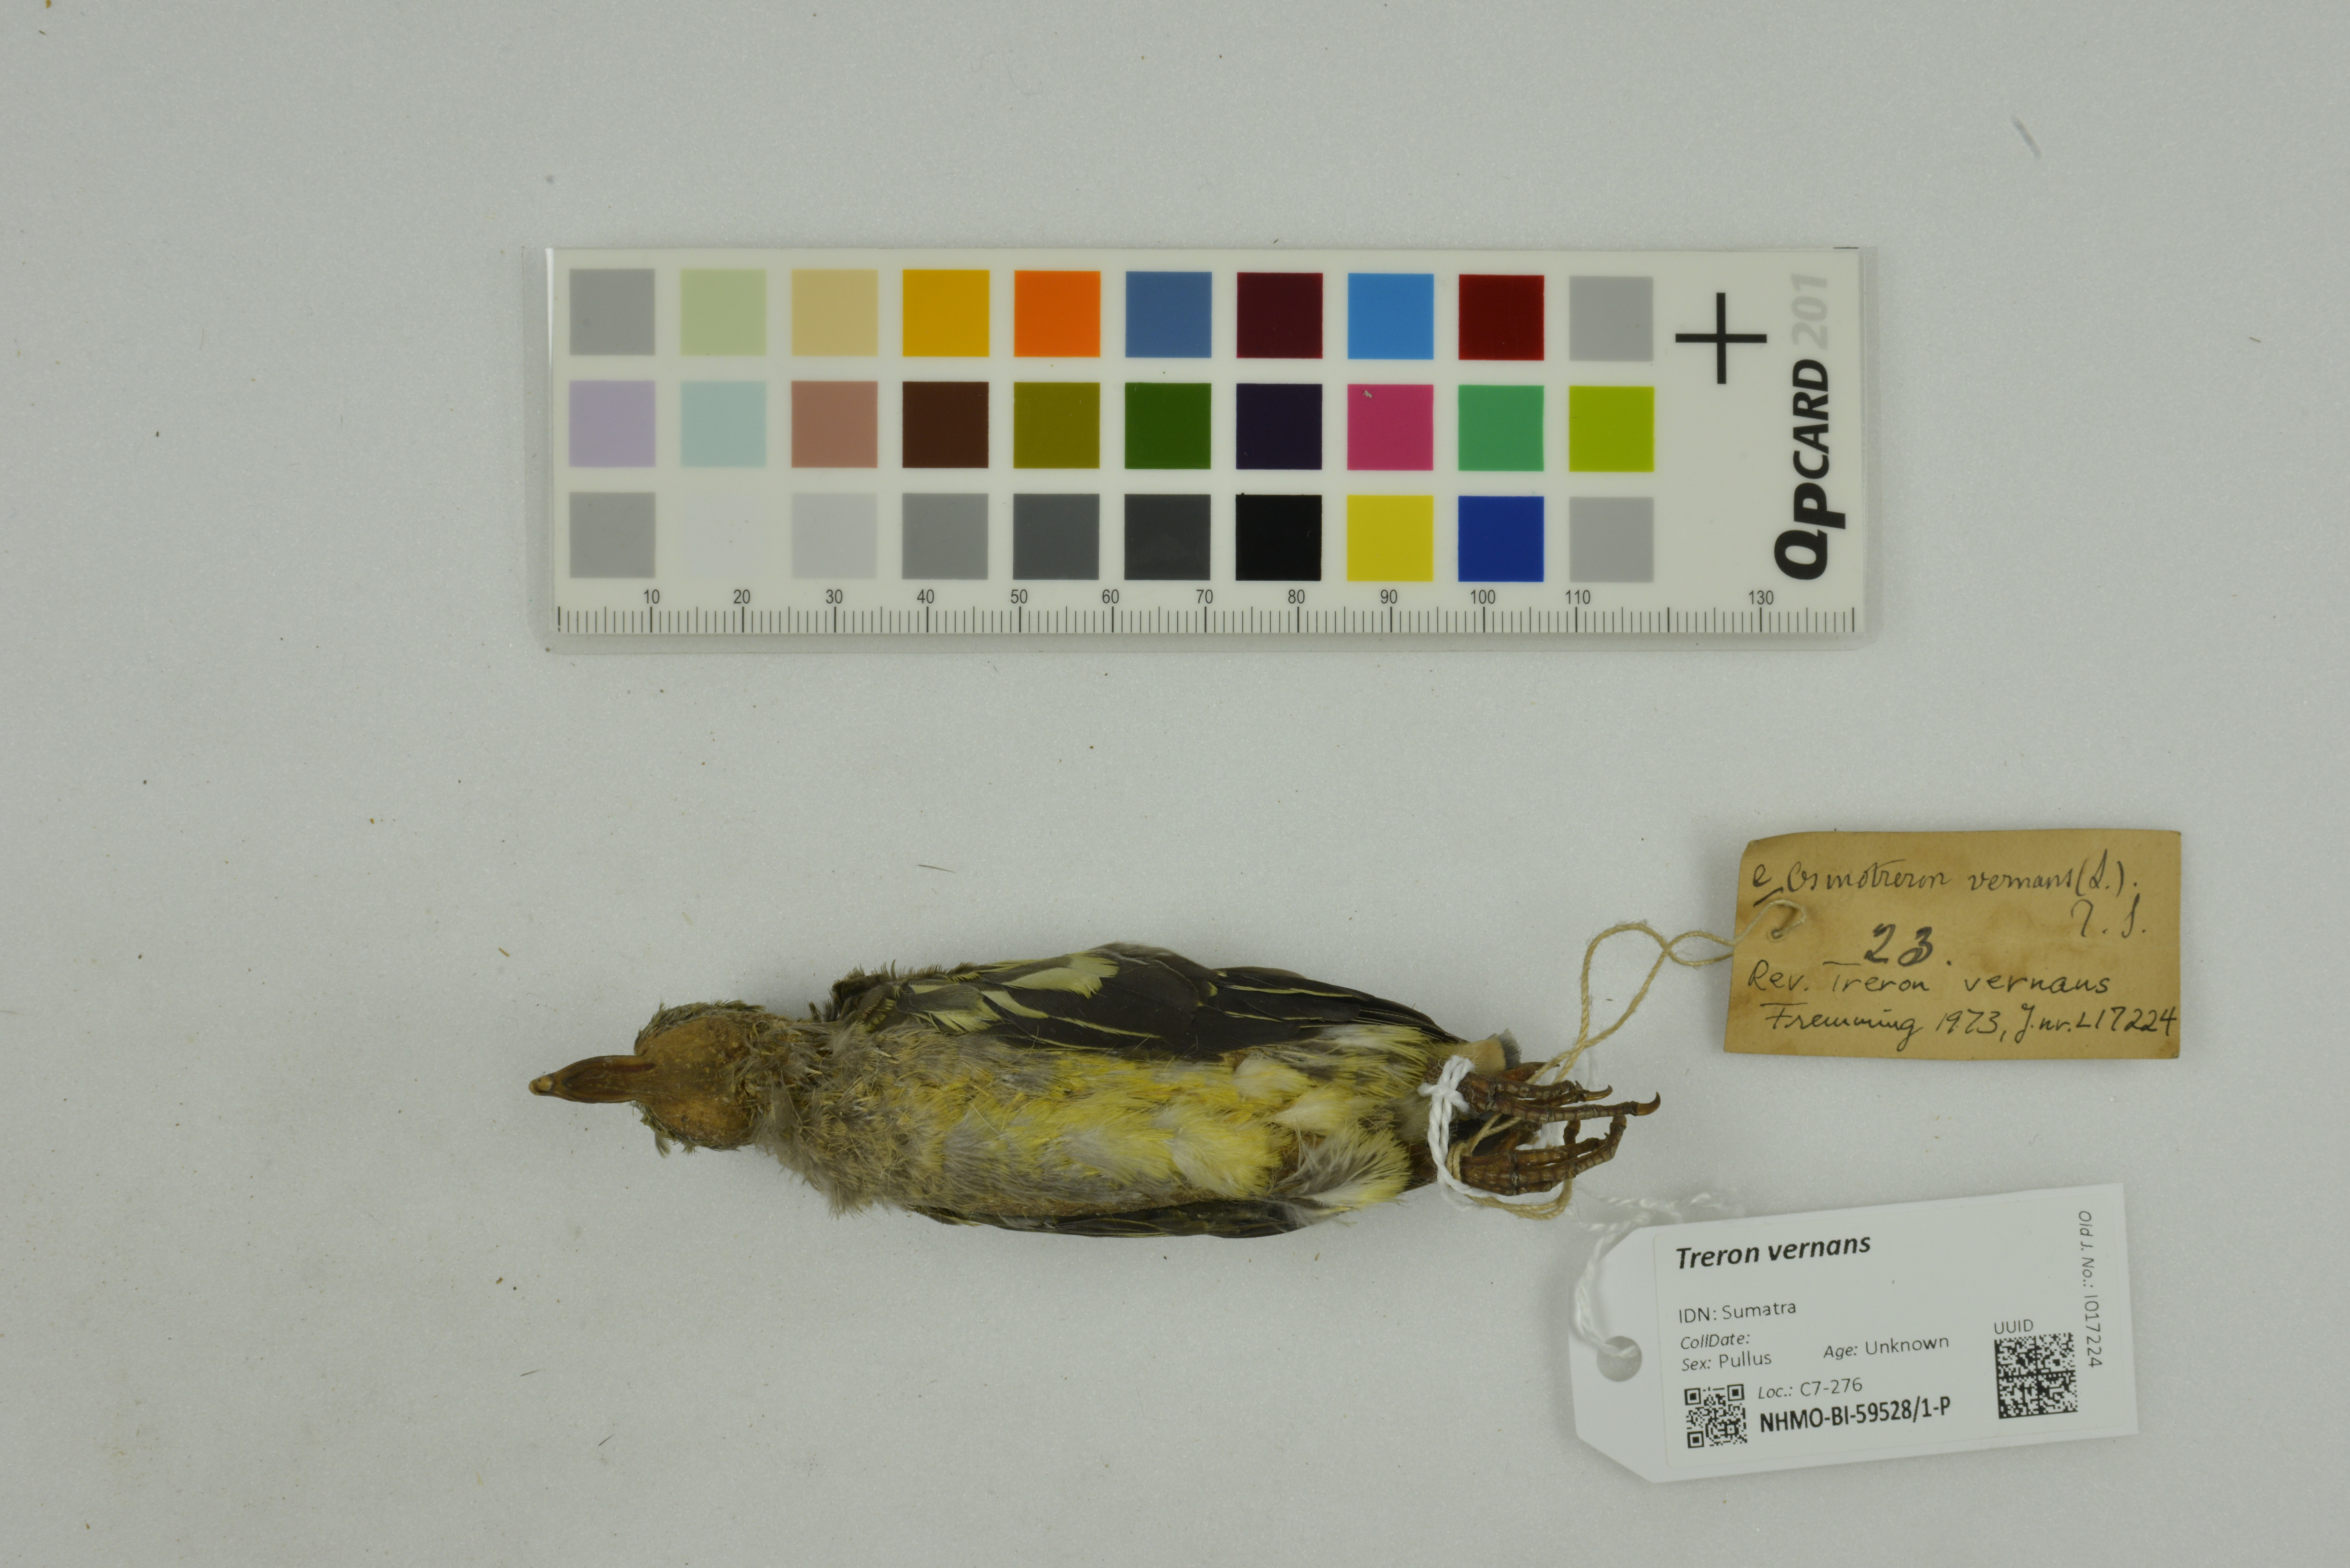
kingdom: Animalia
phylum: Chordata
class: Aves
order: Columbiformes
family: Columbidae
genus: Treron
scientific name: Treron vernans
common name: Pink-necked green pigeon
